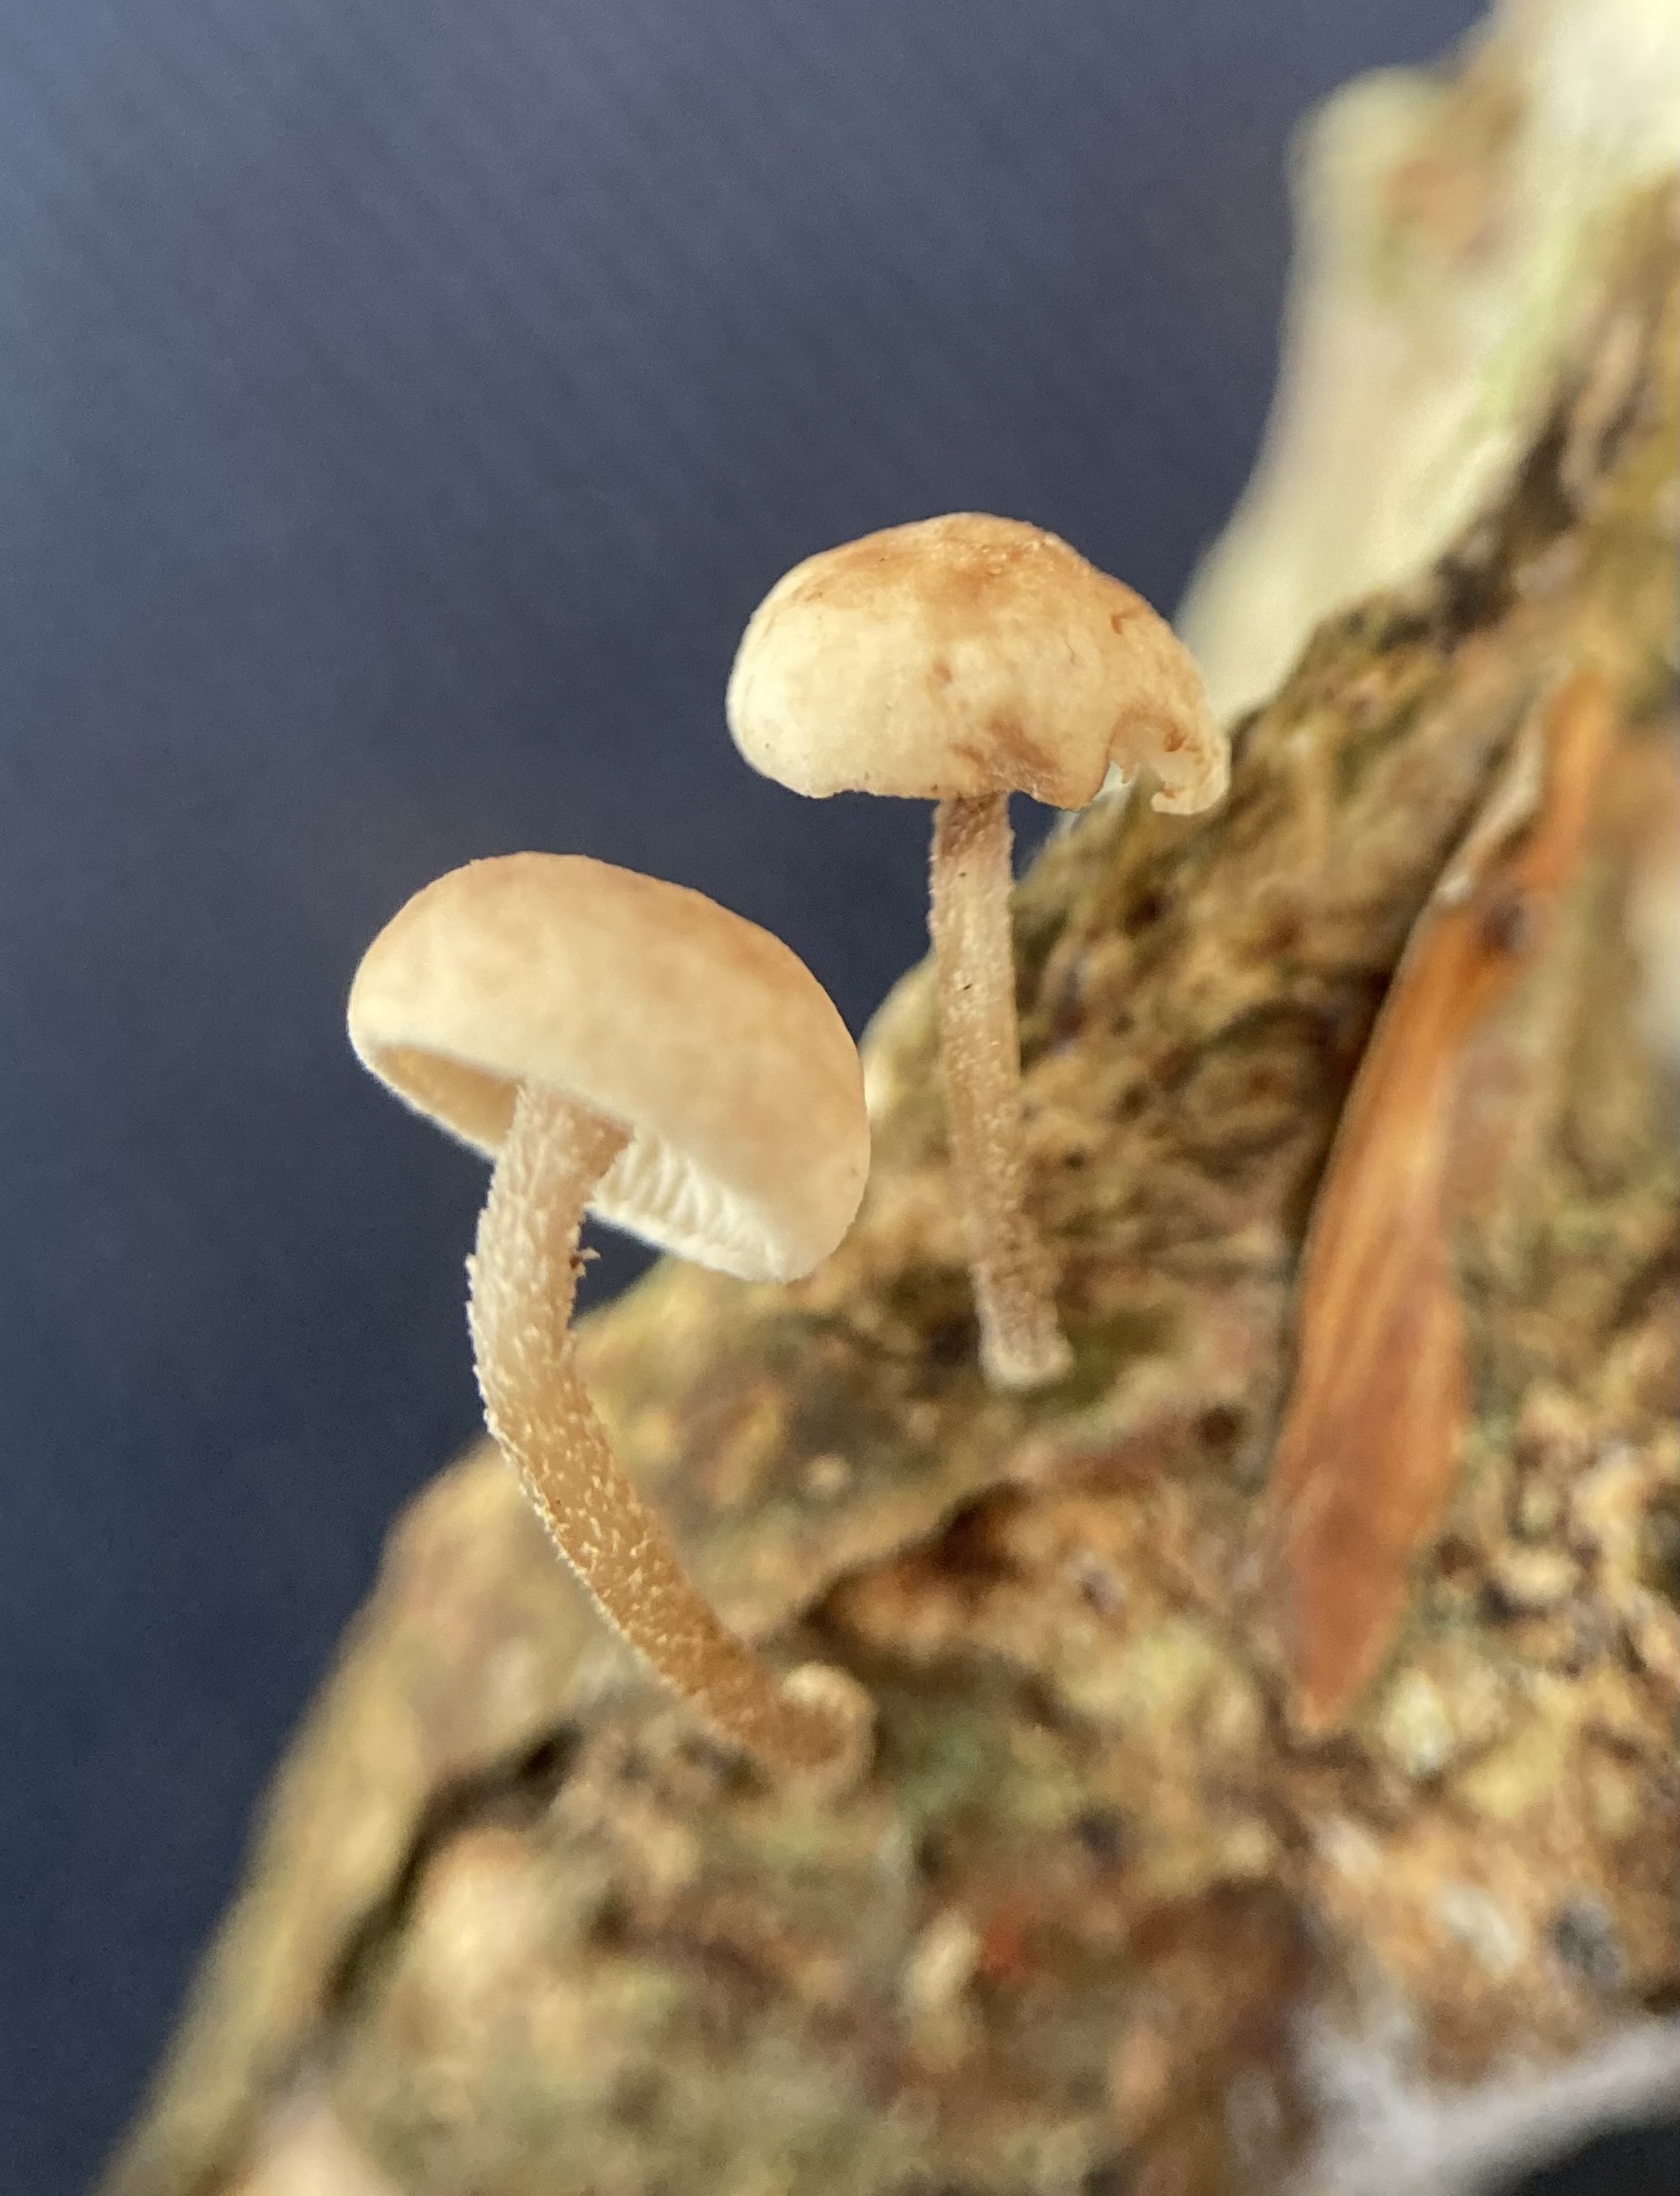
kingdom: Fungi
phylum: Basidiomycota
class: Agaricomycetes
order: Agaricales
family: Omphalotaceae
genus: Collybiopsis
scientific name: Collybiopsis ramealis
